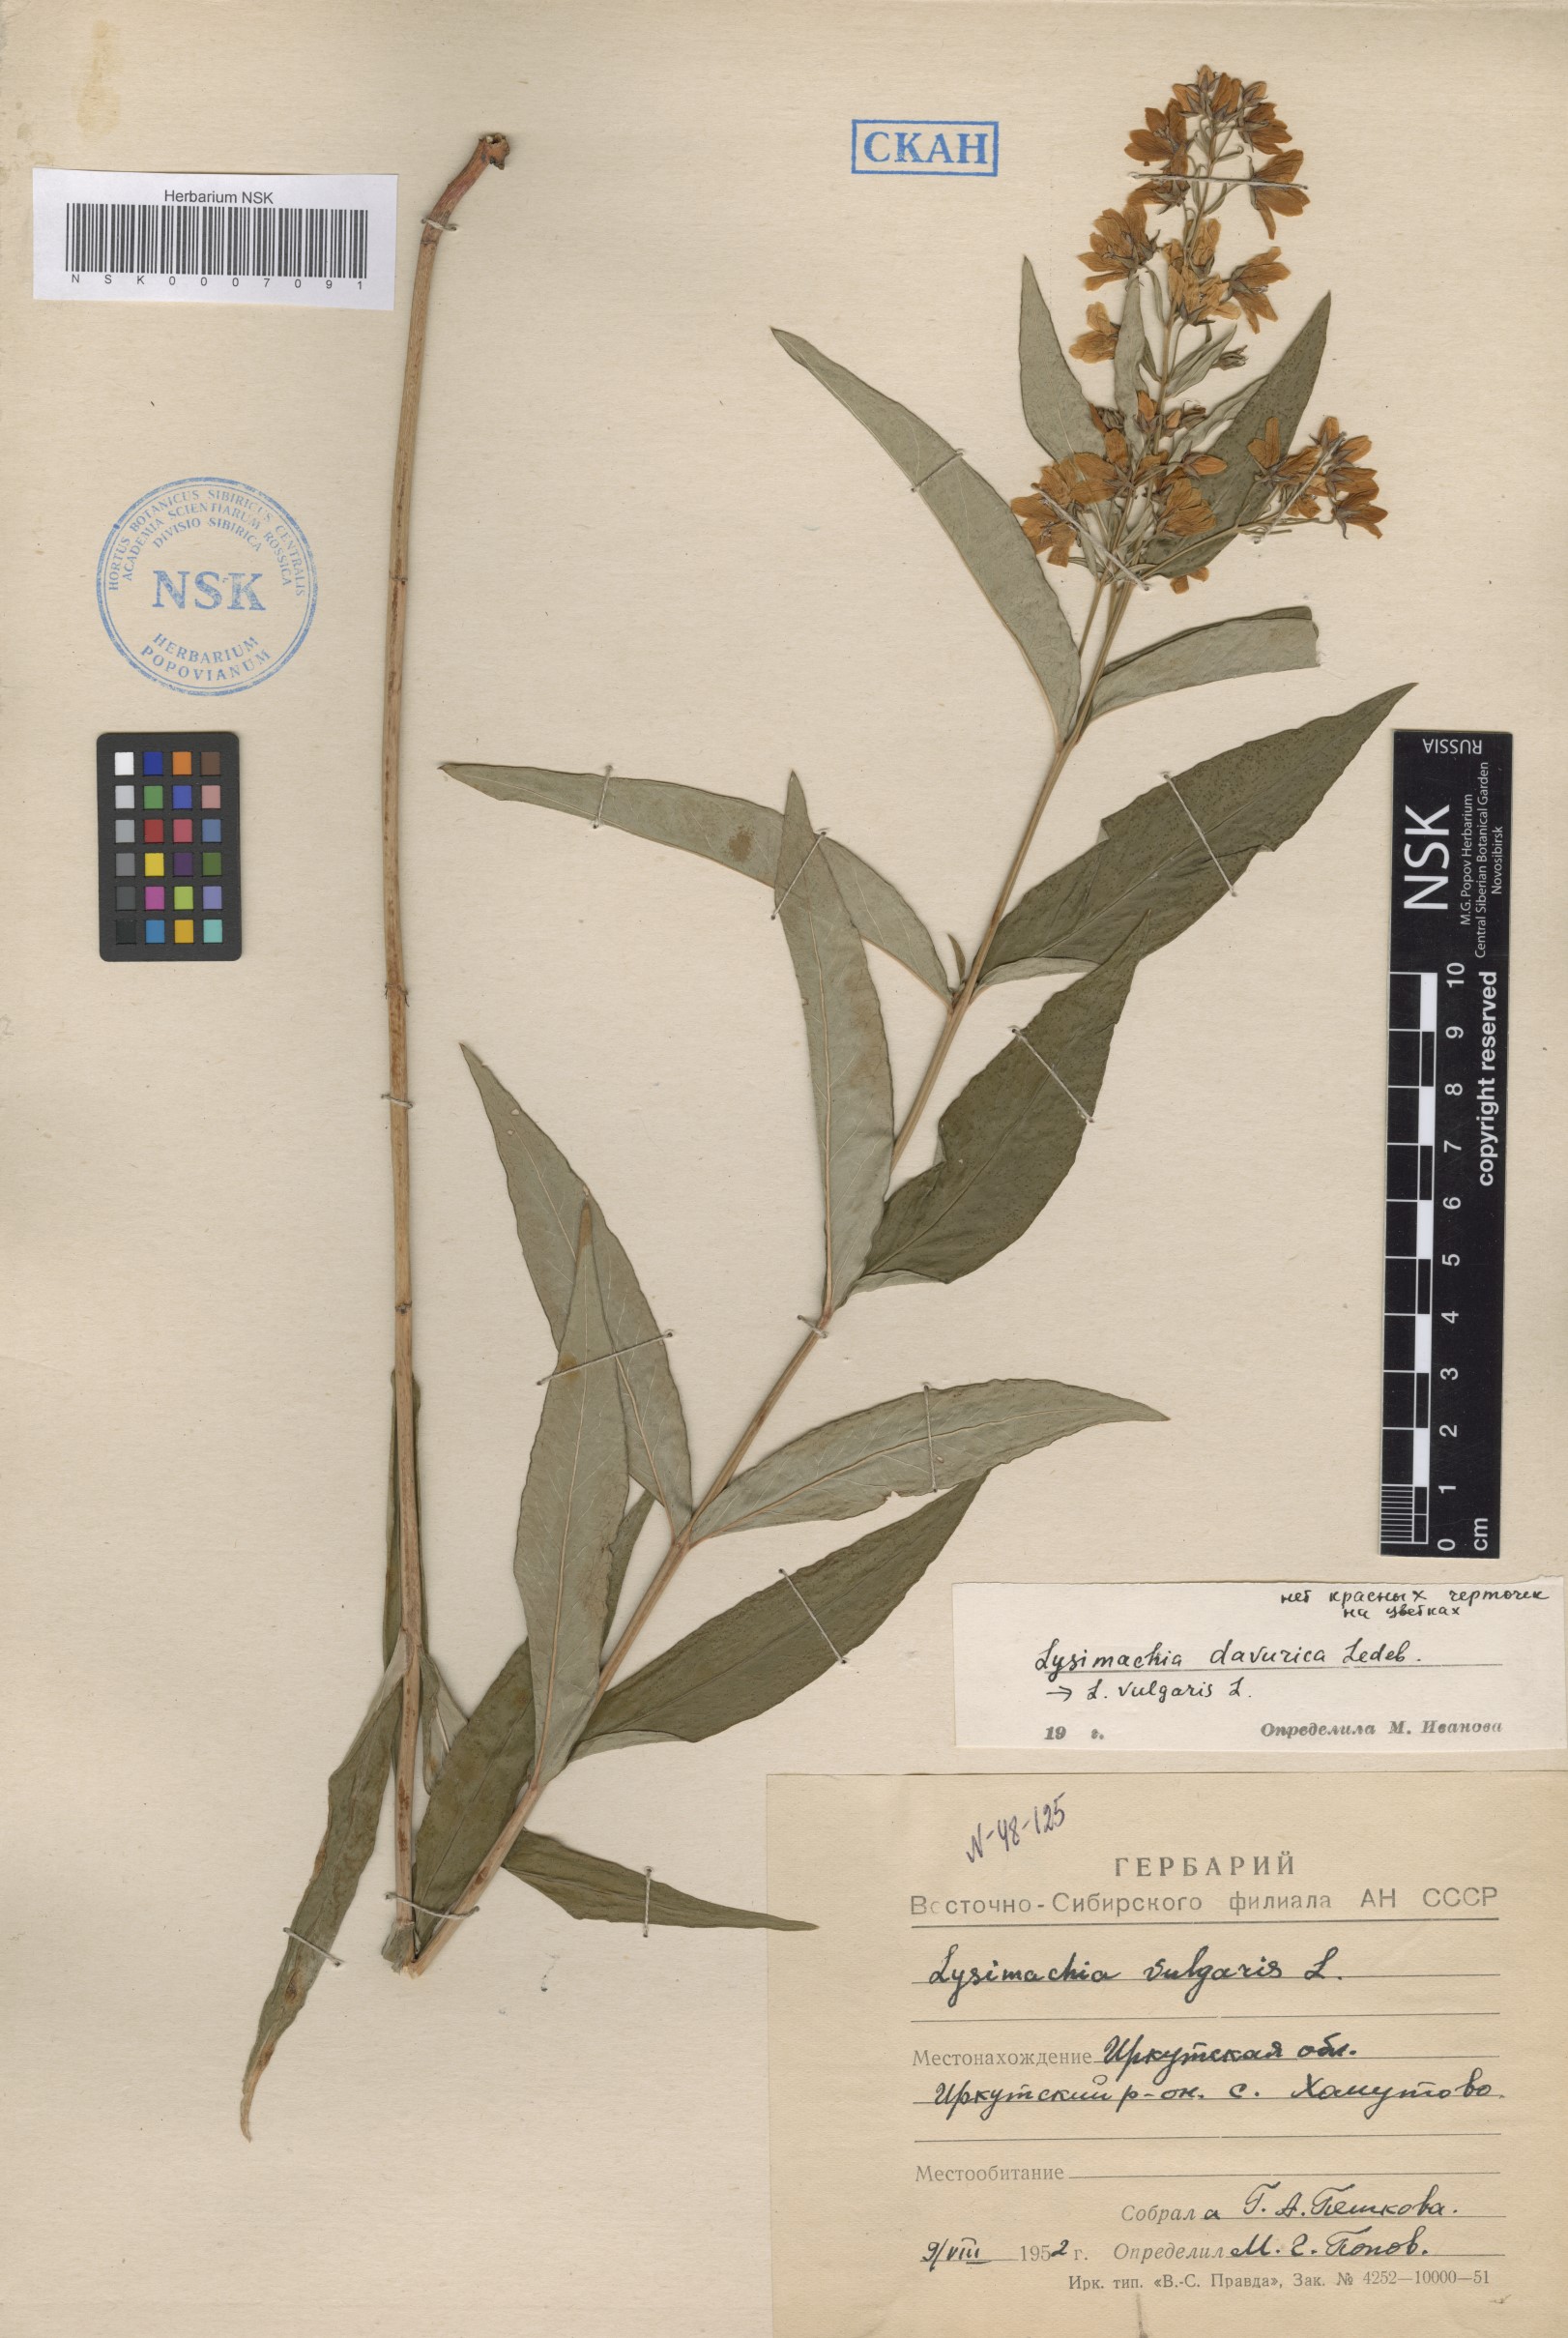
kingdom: Plantae
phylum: Tracheophyta
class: Magnoliopsida
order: Ericales
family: Primulaceae
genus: Lysimachia
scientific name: Lysimachia davurica
